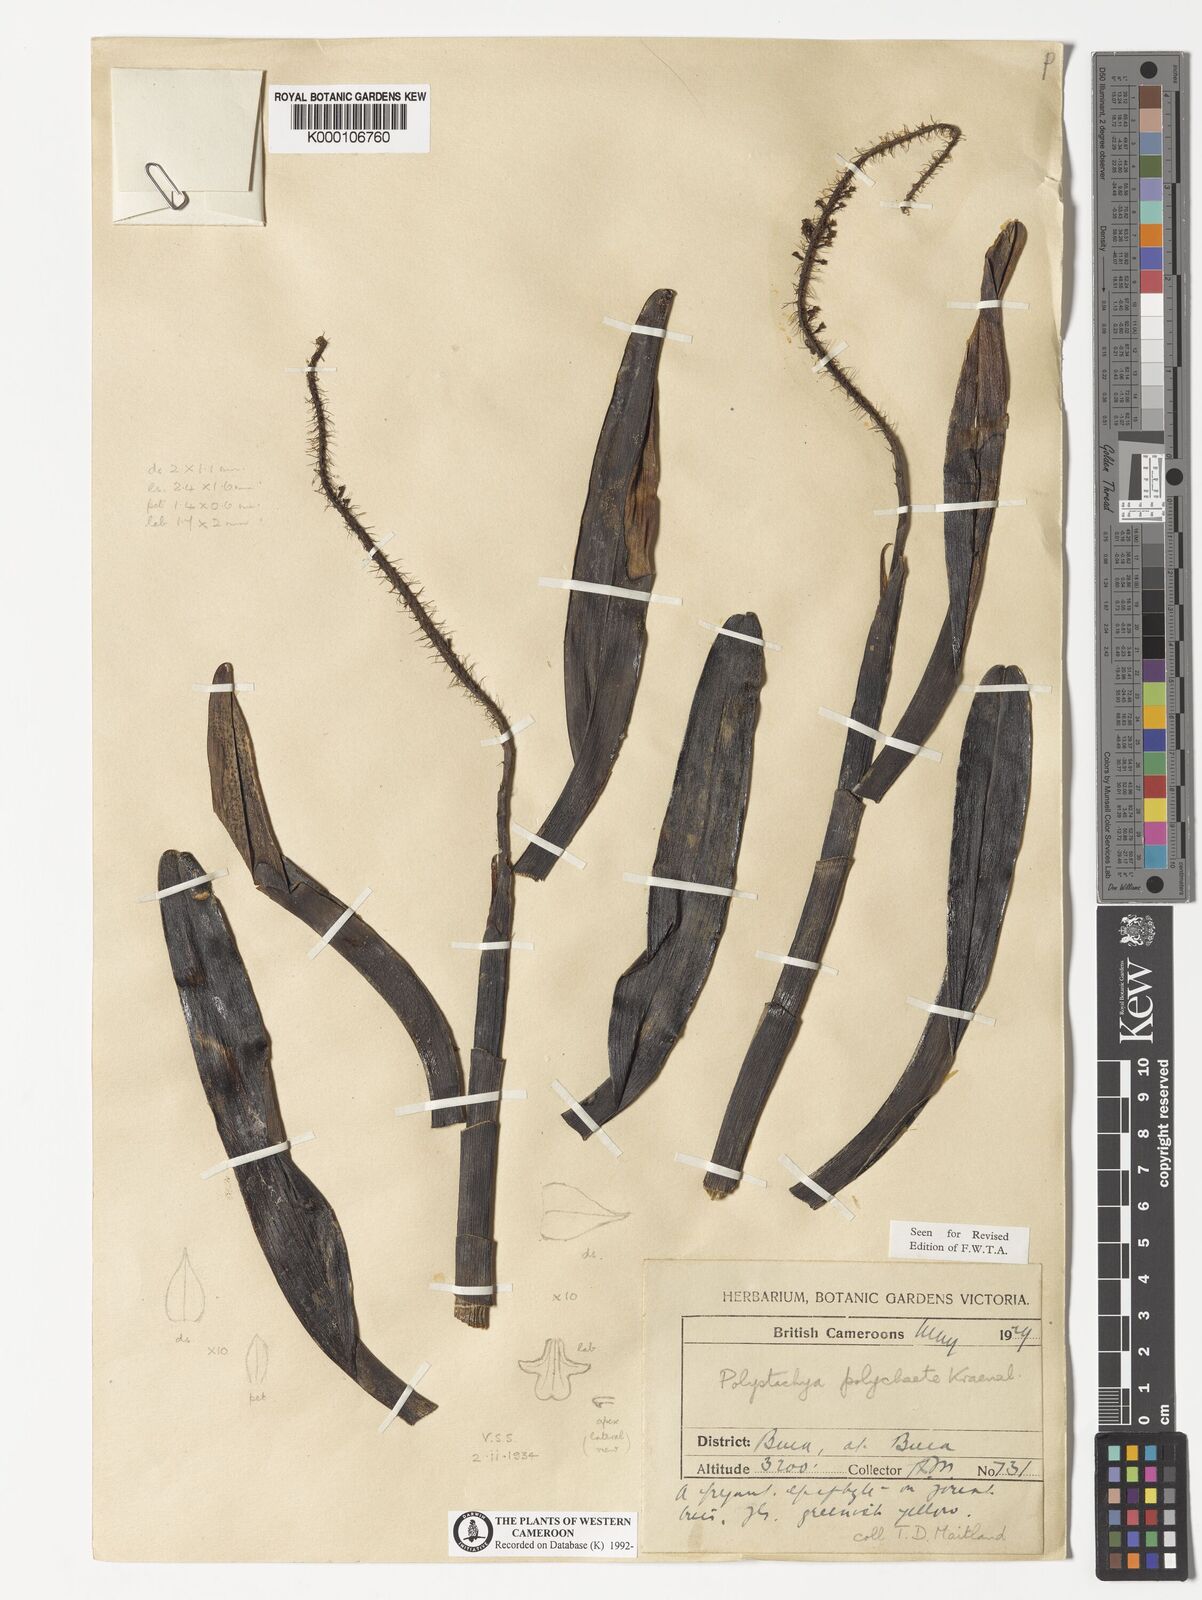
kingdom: Plantae
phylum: Tracheophyta
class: Liliopsida
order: Asparagales
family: Orchidaceae
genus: Polystachya
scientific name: Polystachya polychaete
